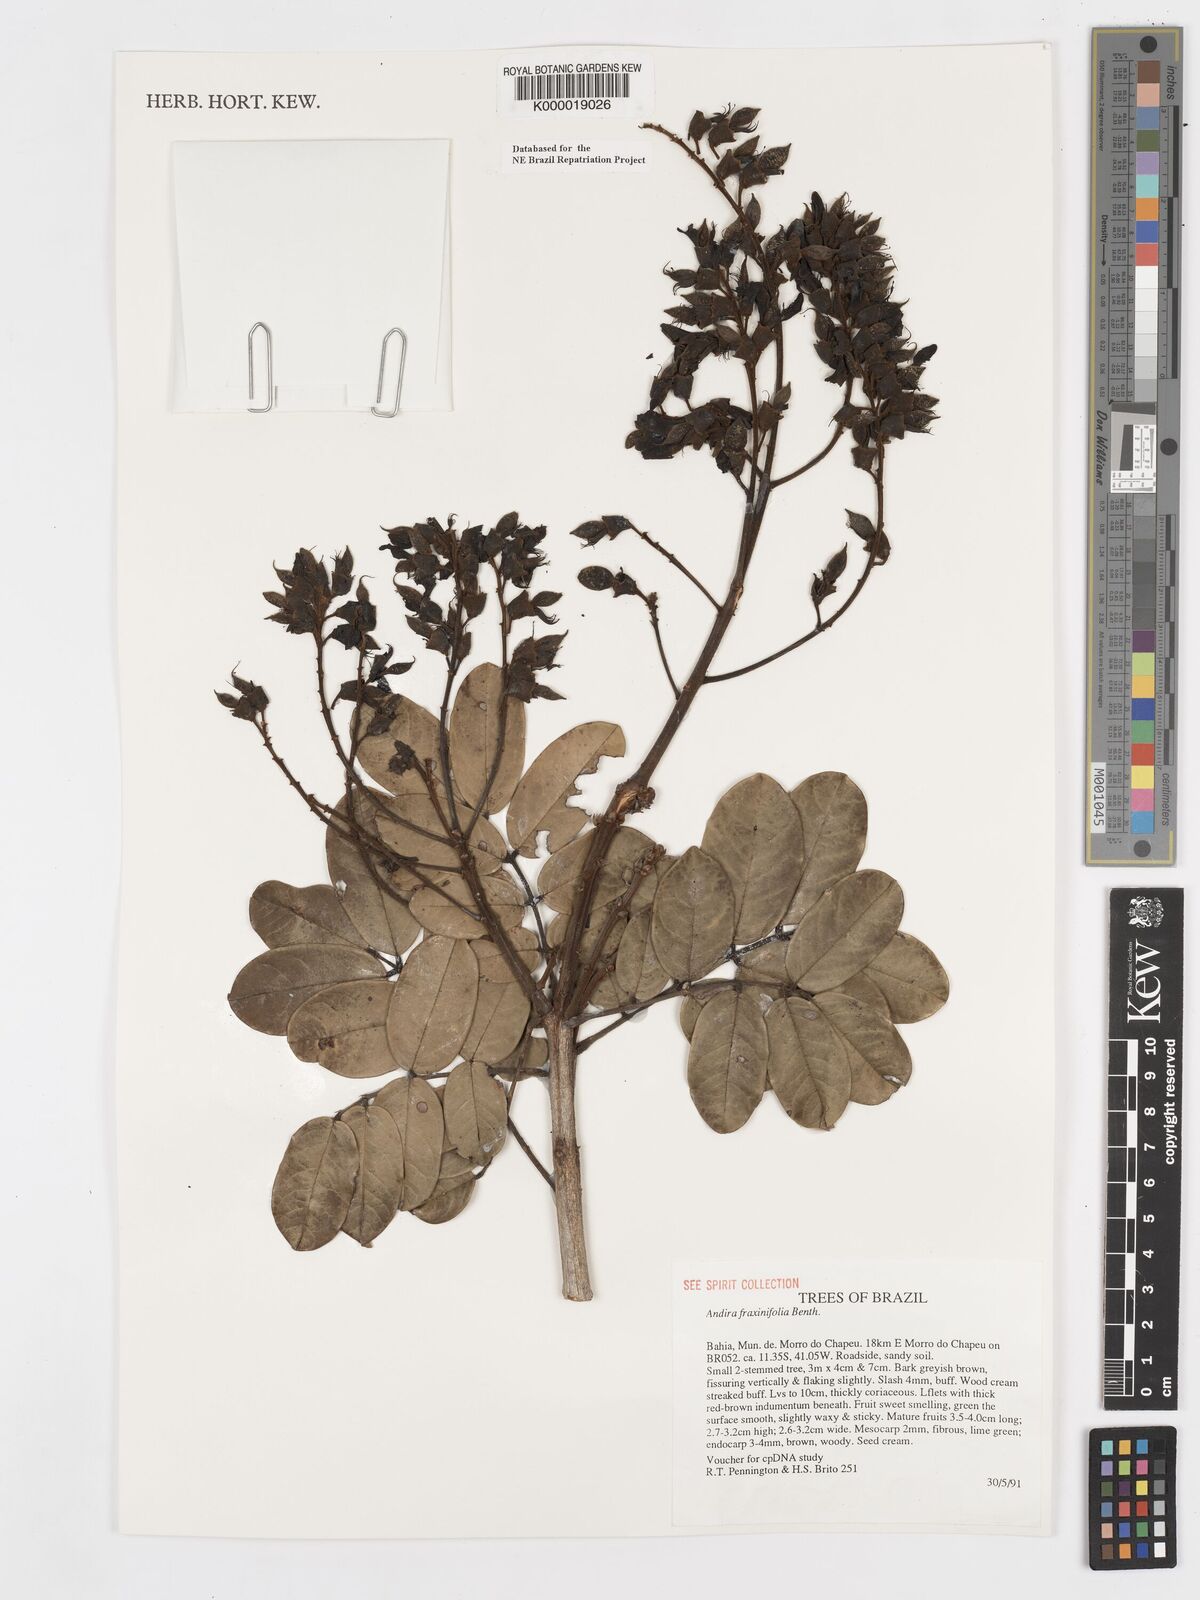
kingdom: Plantae
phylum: Tracheophyta
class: Magnoliopsida
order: Fabales
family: Fabaceae
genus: Andira
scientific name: Andira fraxinifolia
